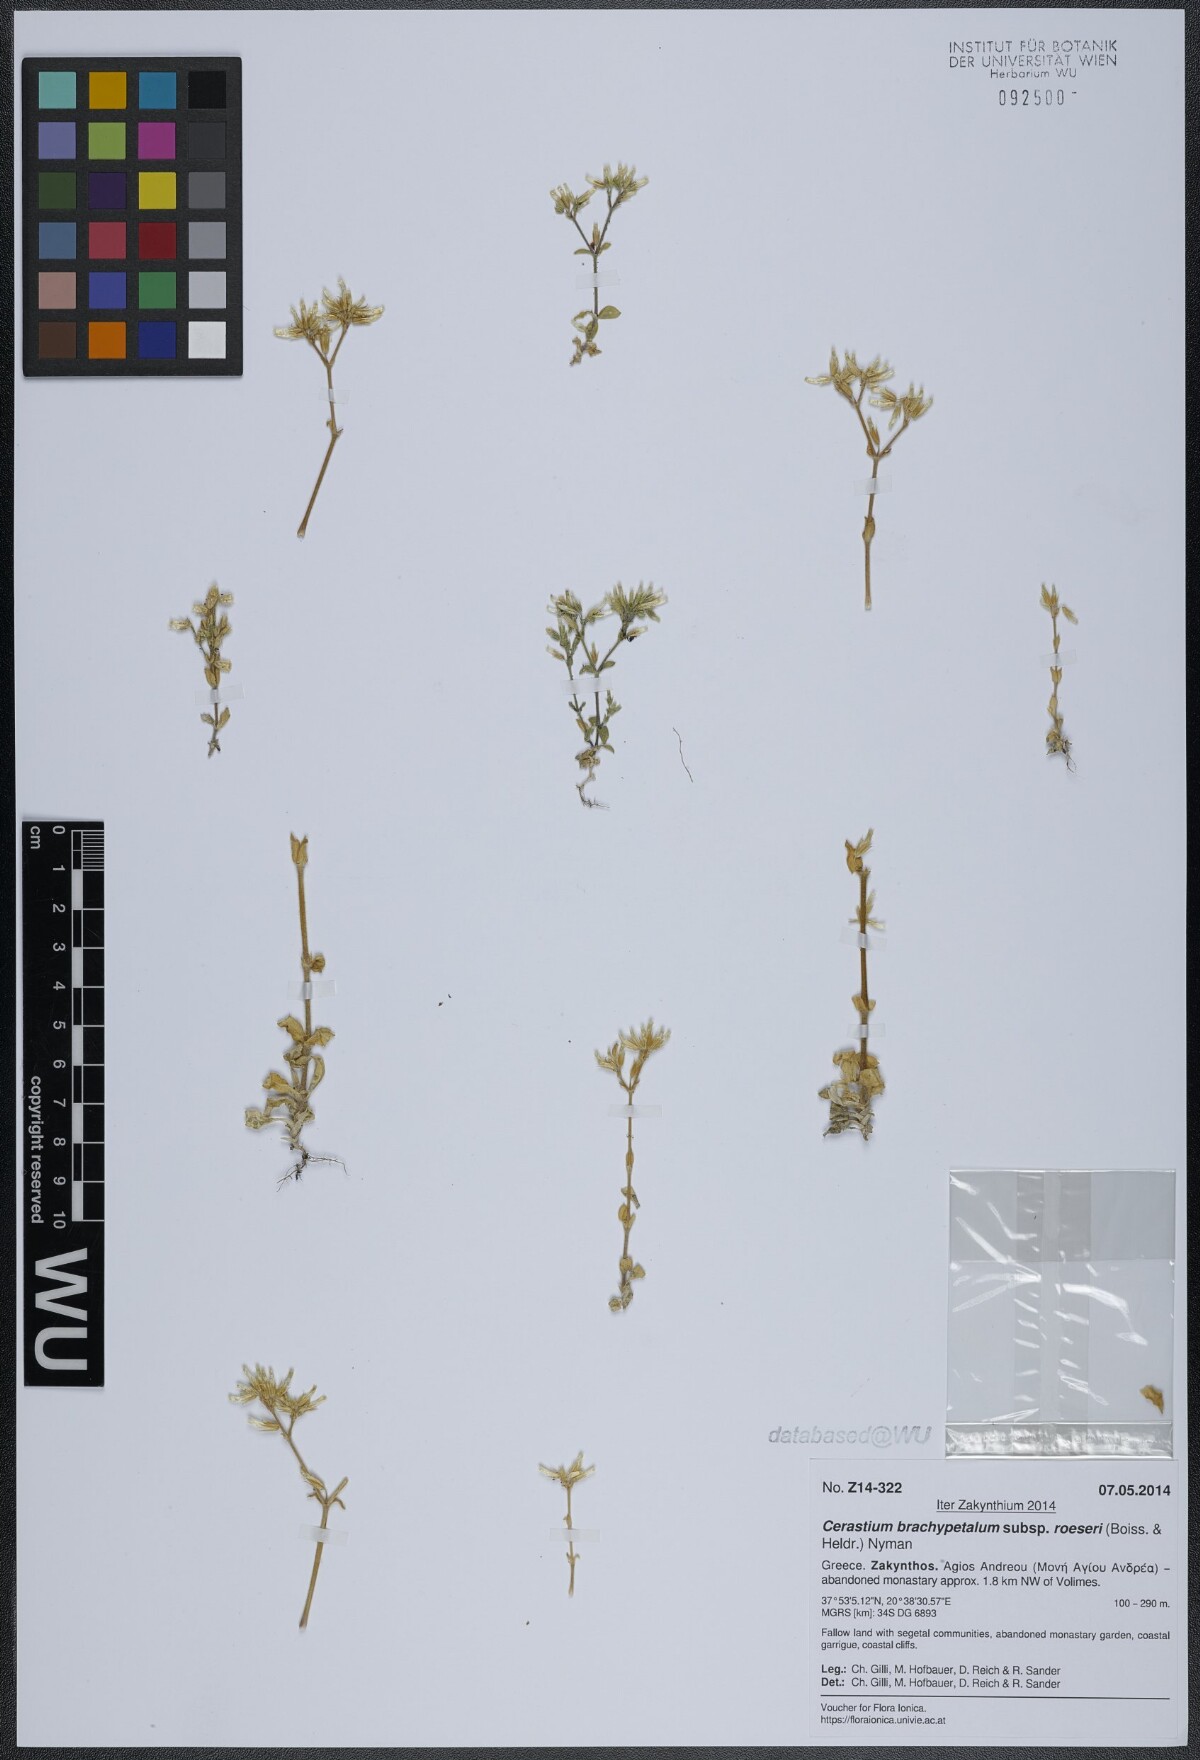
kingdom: Plantae
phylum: Tracheophyta
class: Magnoliopsida
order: Caryophyllales
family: Caryophyllaceae
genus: Cerastium
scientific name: Cerastium brachypetalum
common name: Grey mouse-ear
